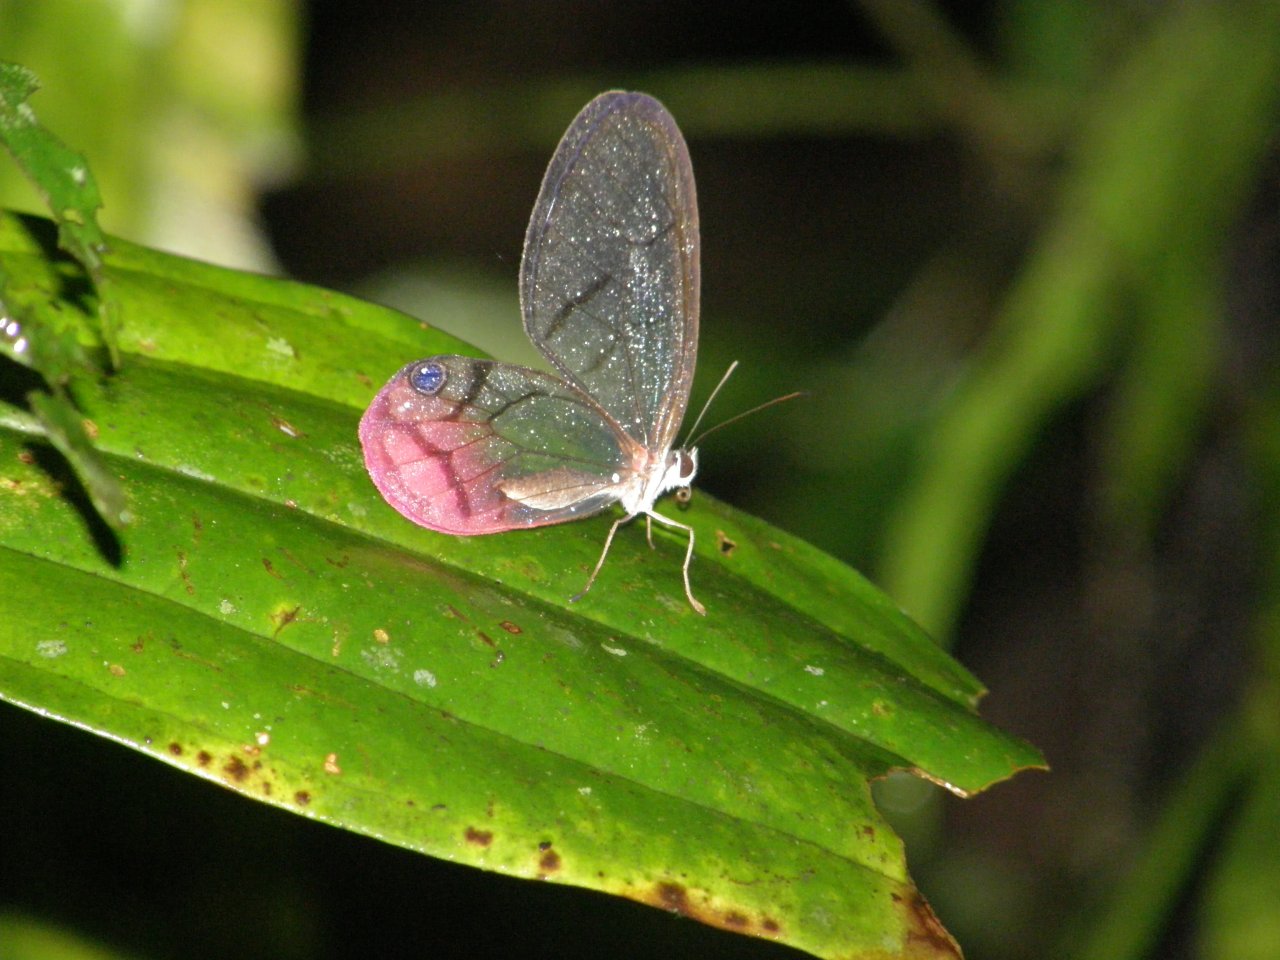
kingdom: Animalia
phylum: Arthropoda
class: Insecta
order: Lepidoptera
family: Nymphalidae
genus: Cithaerias
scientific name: Cithaerias pireta
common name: Rusted Clearwing-Satyr
